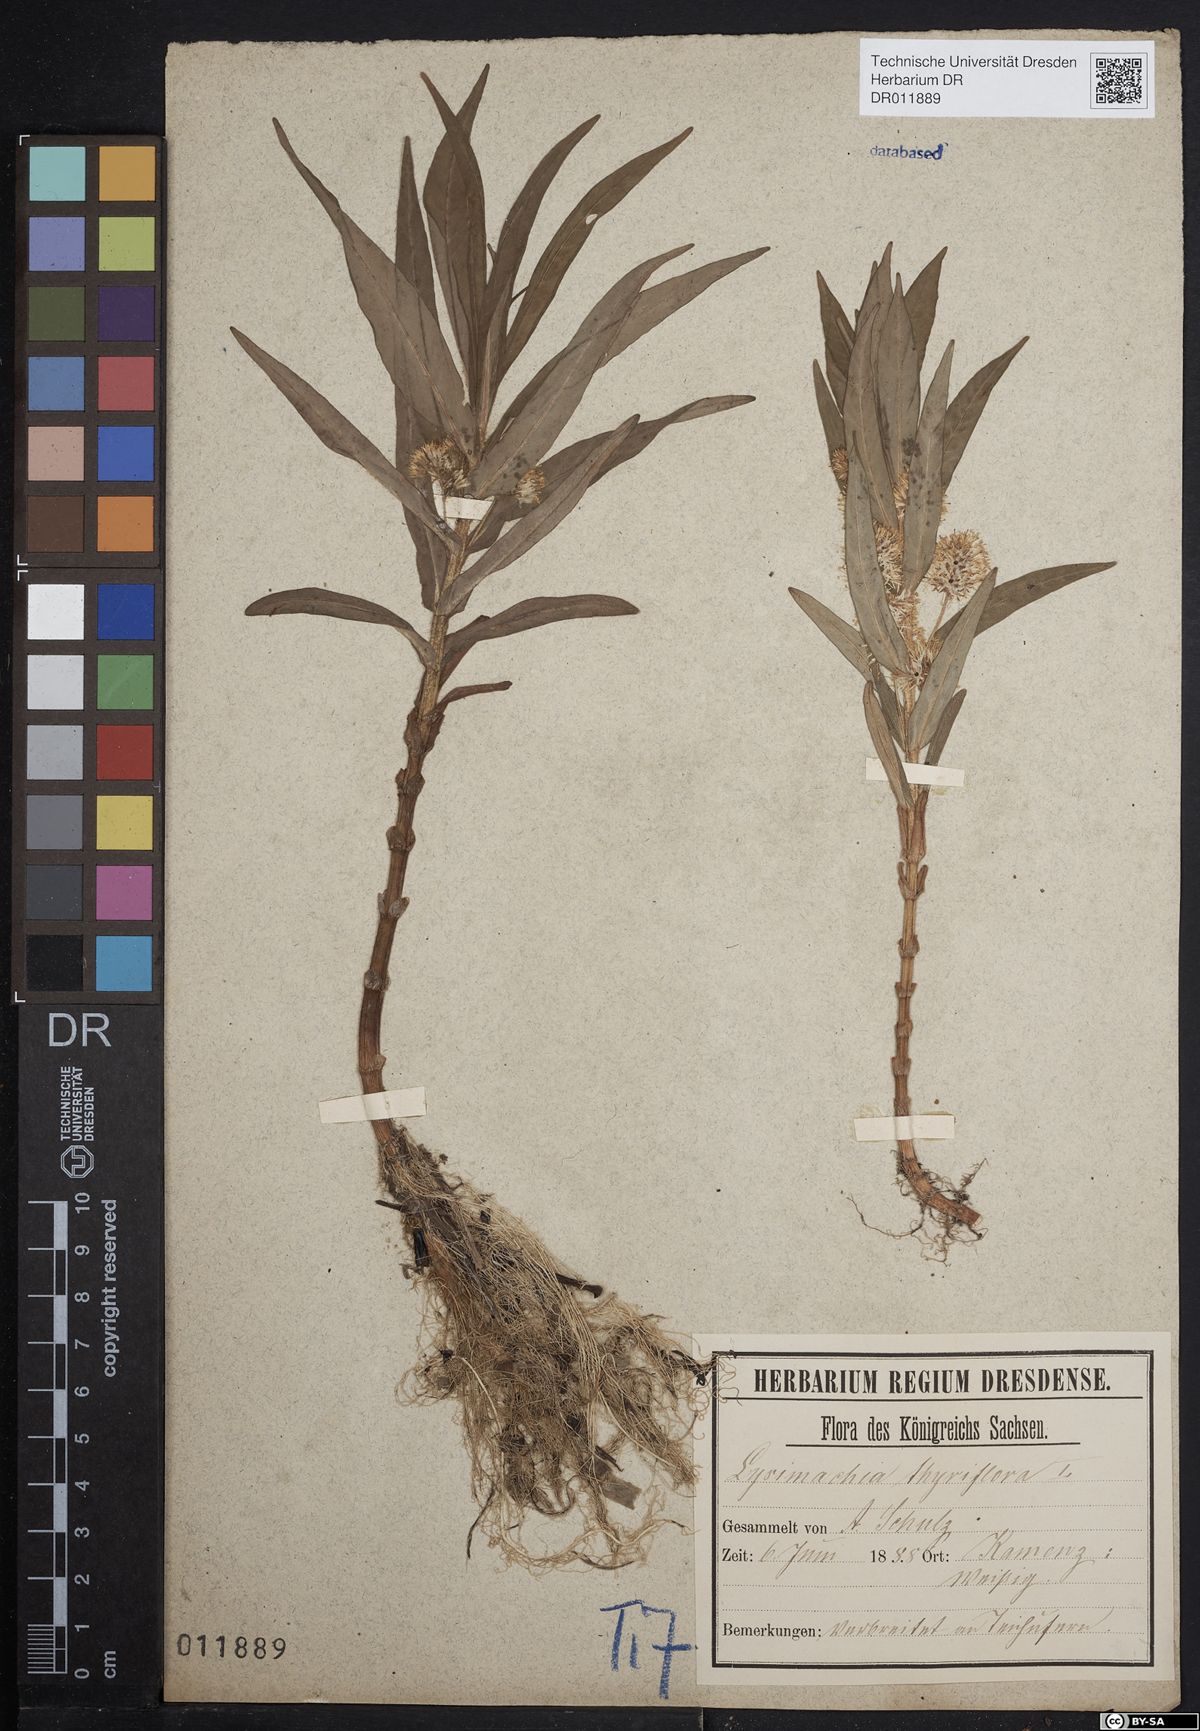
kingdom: Plantae
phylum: Tracheophyta
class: Magnoliopsida
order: Ericales
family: Primulaceae
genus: Lysimachia
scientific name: Lysimachia thyrsiflora
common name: Tufted loosestrife
